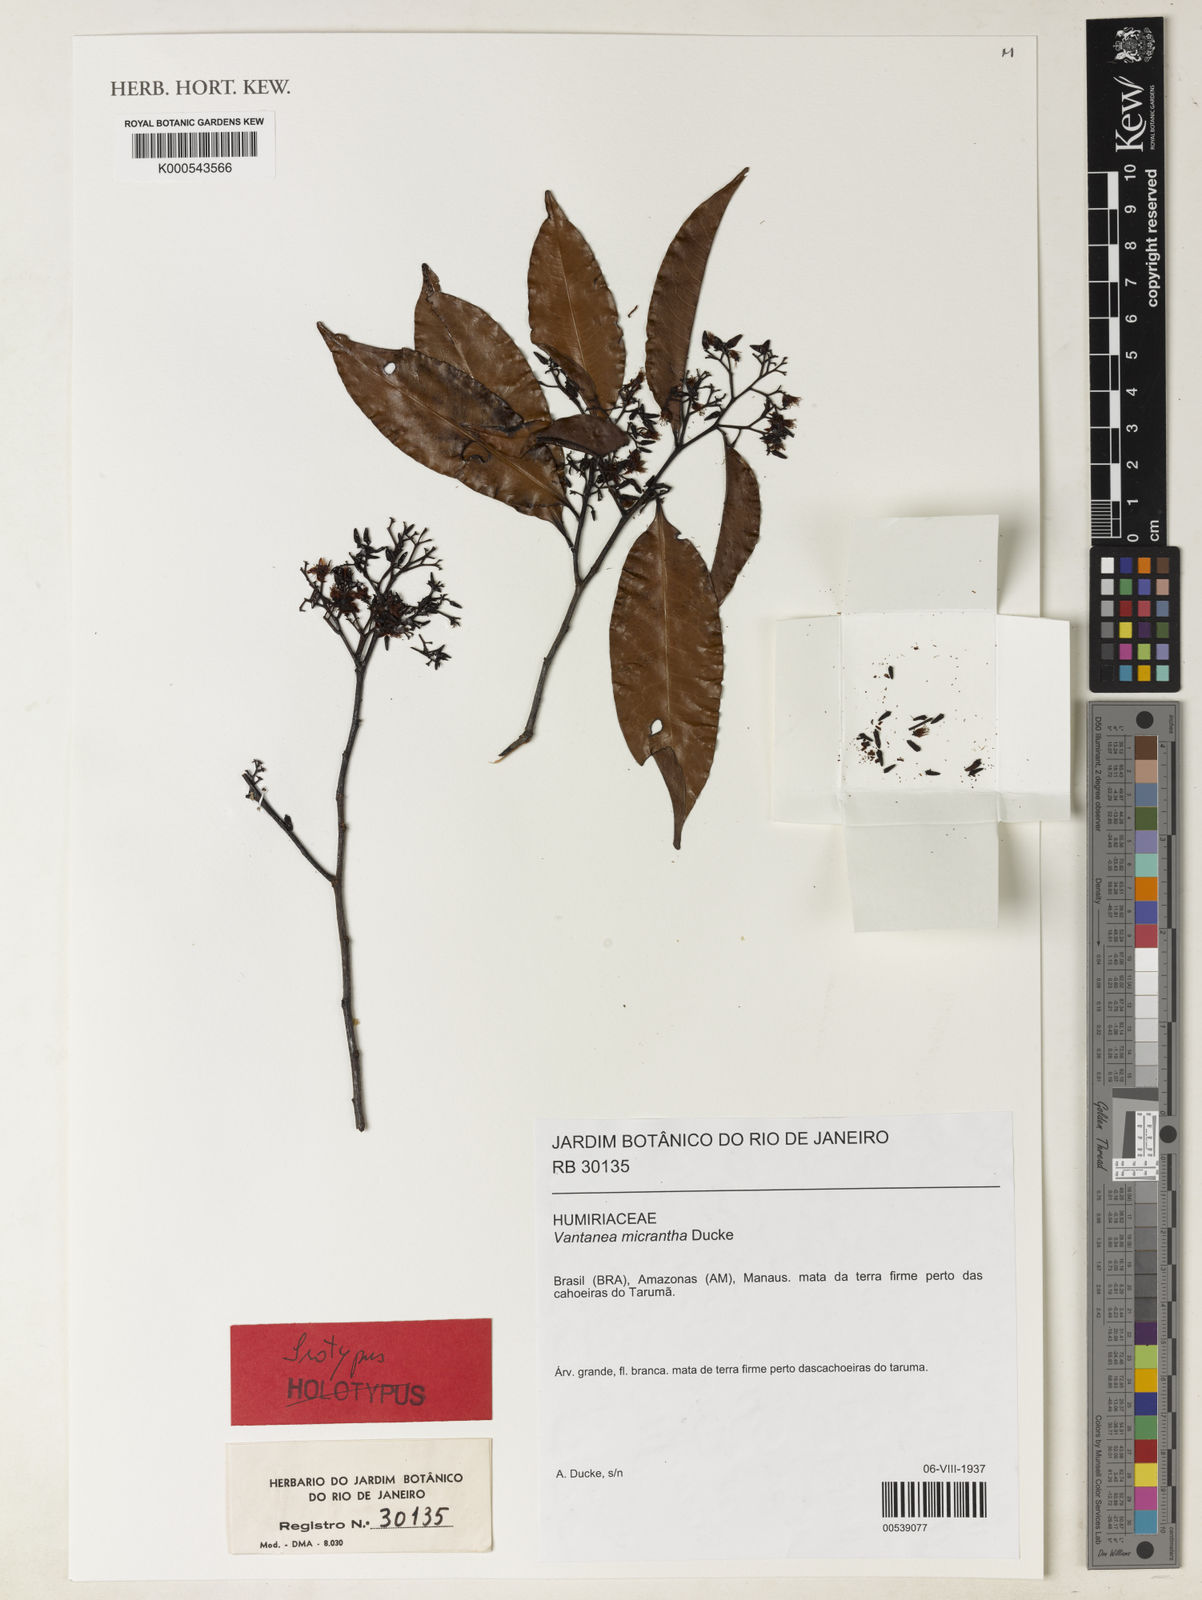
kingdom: Plantae
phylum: Tracheophyta
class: Magnoliopsida
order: Malpighiales
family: Humiriaceae
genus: Vantanea
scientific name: Vantanea micrantha
